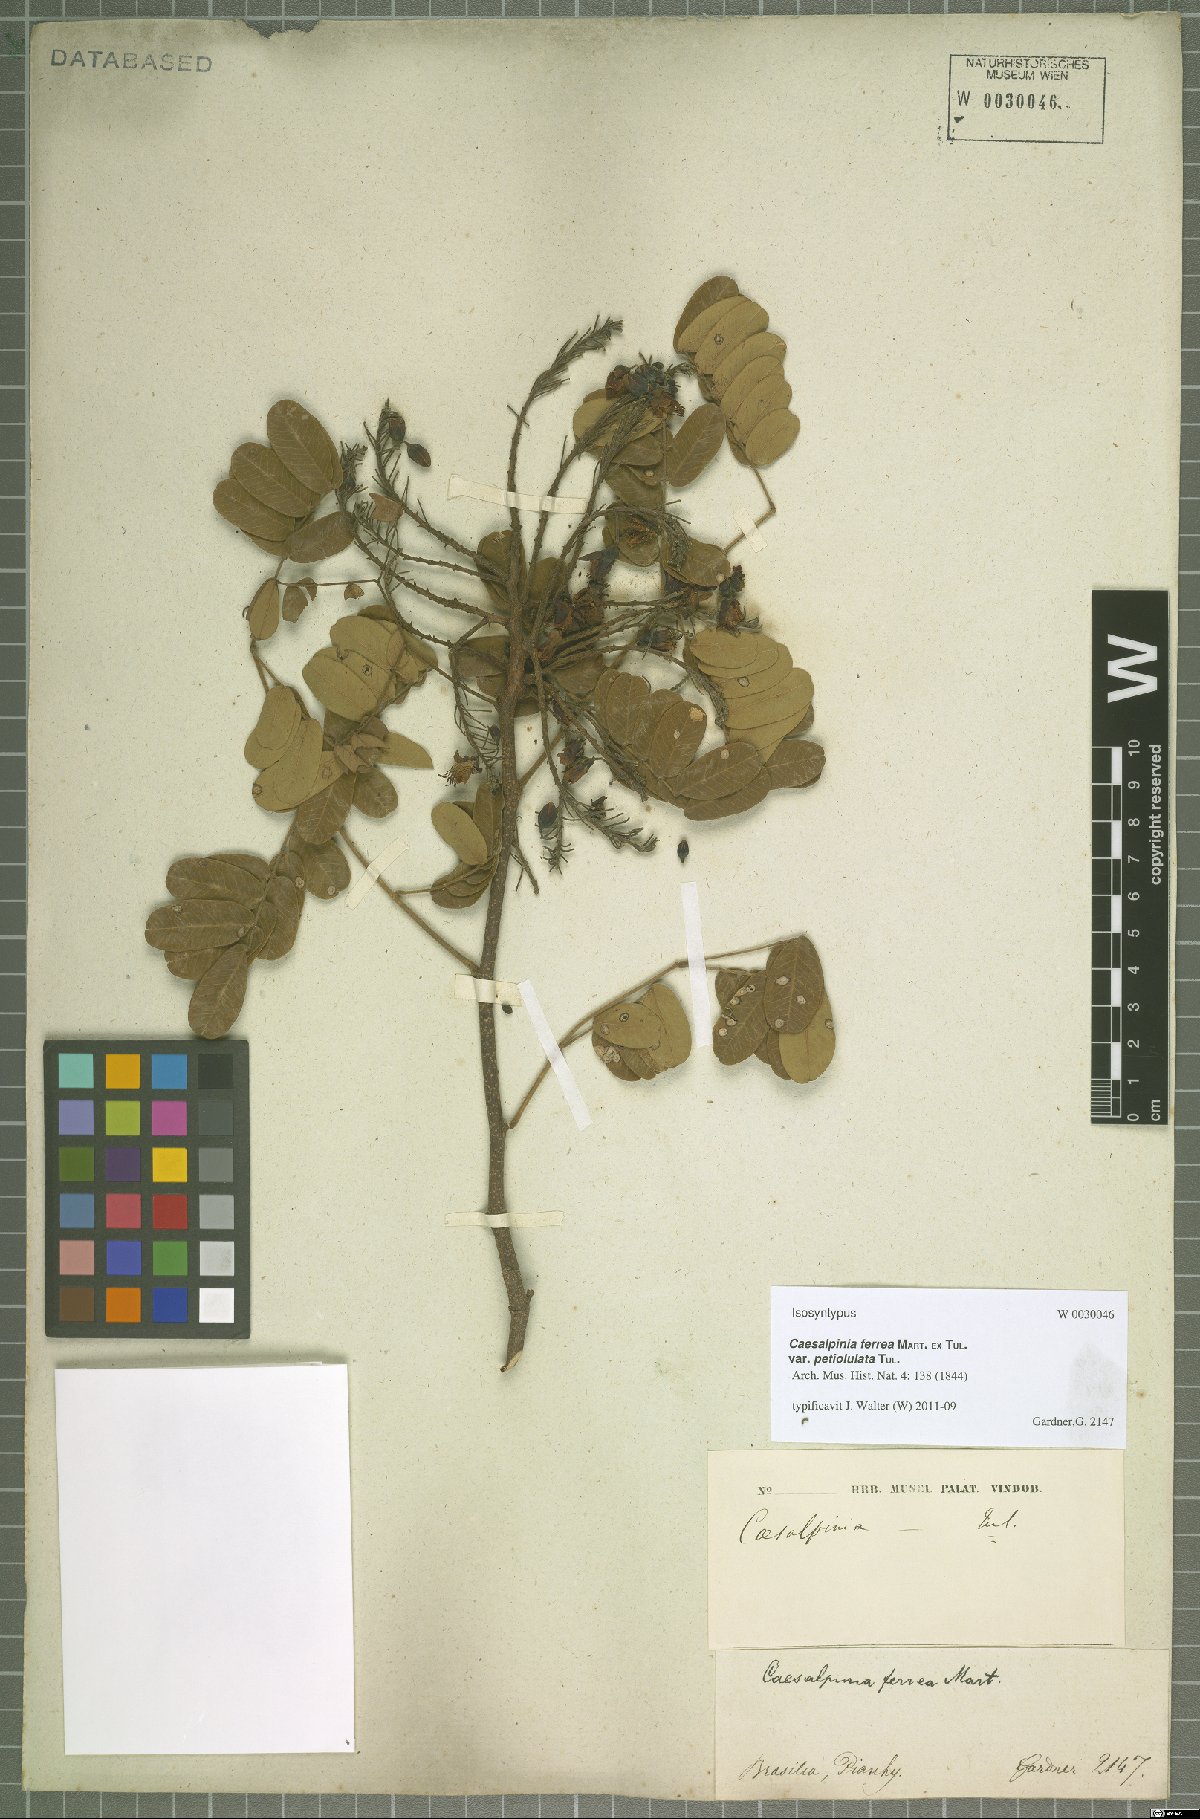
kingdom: Plantae
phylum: Tracheophyta
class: Magnoliopsida
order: Fabales
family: Fabaceae
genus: Libidibia
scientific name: Libidibia ferrea
